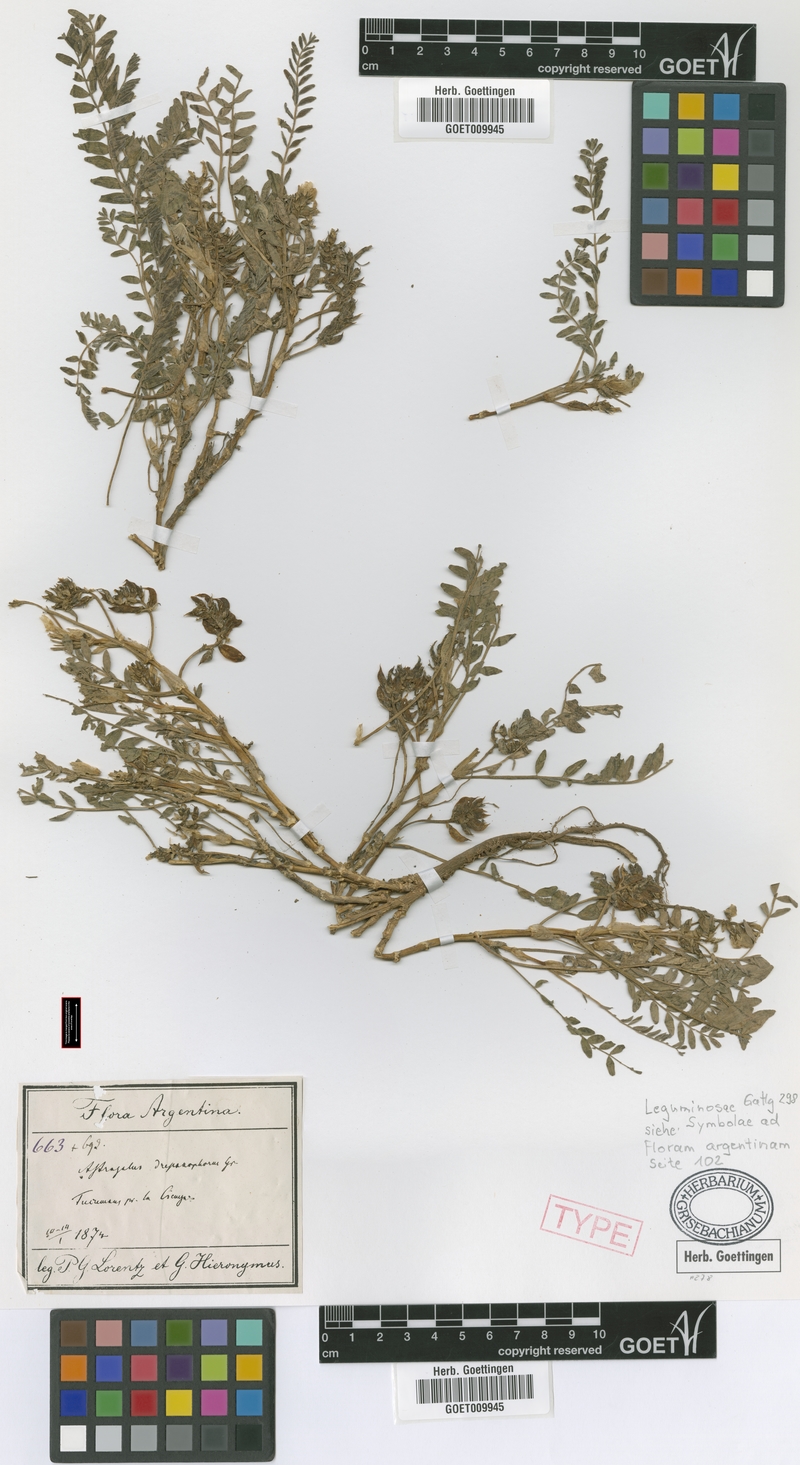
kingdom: Plantae
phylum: Tracheophyta
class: Magnoliopsida
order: Fabales
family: Fabaceae
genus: Astragalus
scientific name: Astragalus arequipensis
